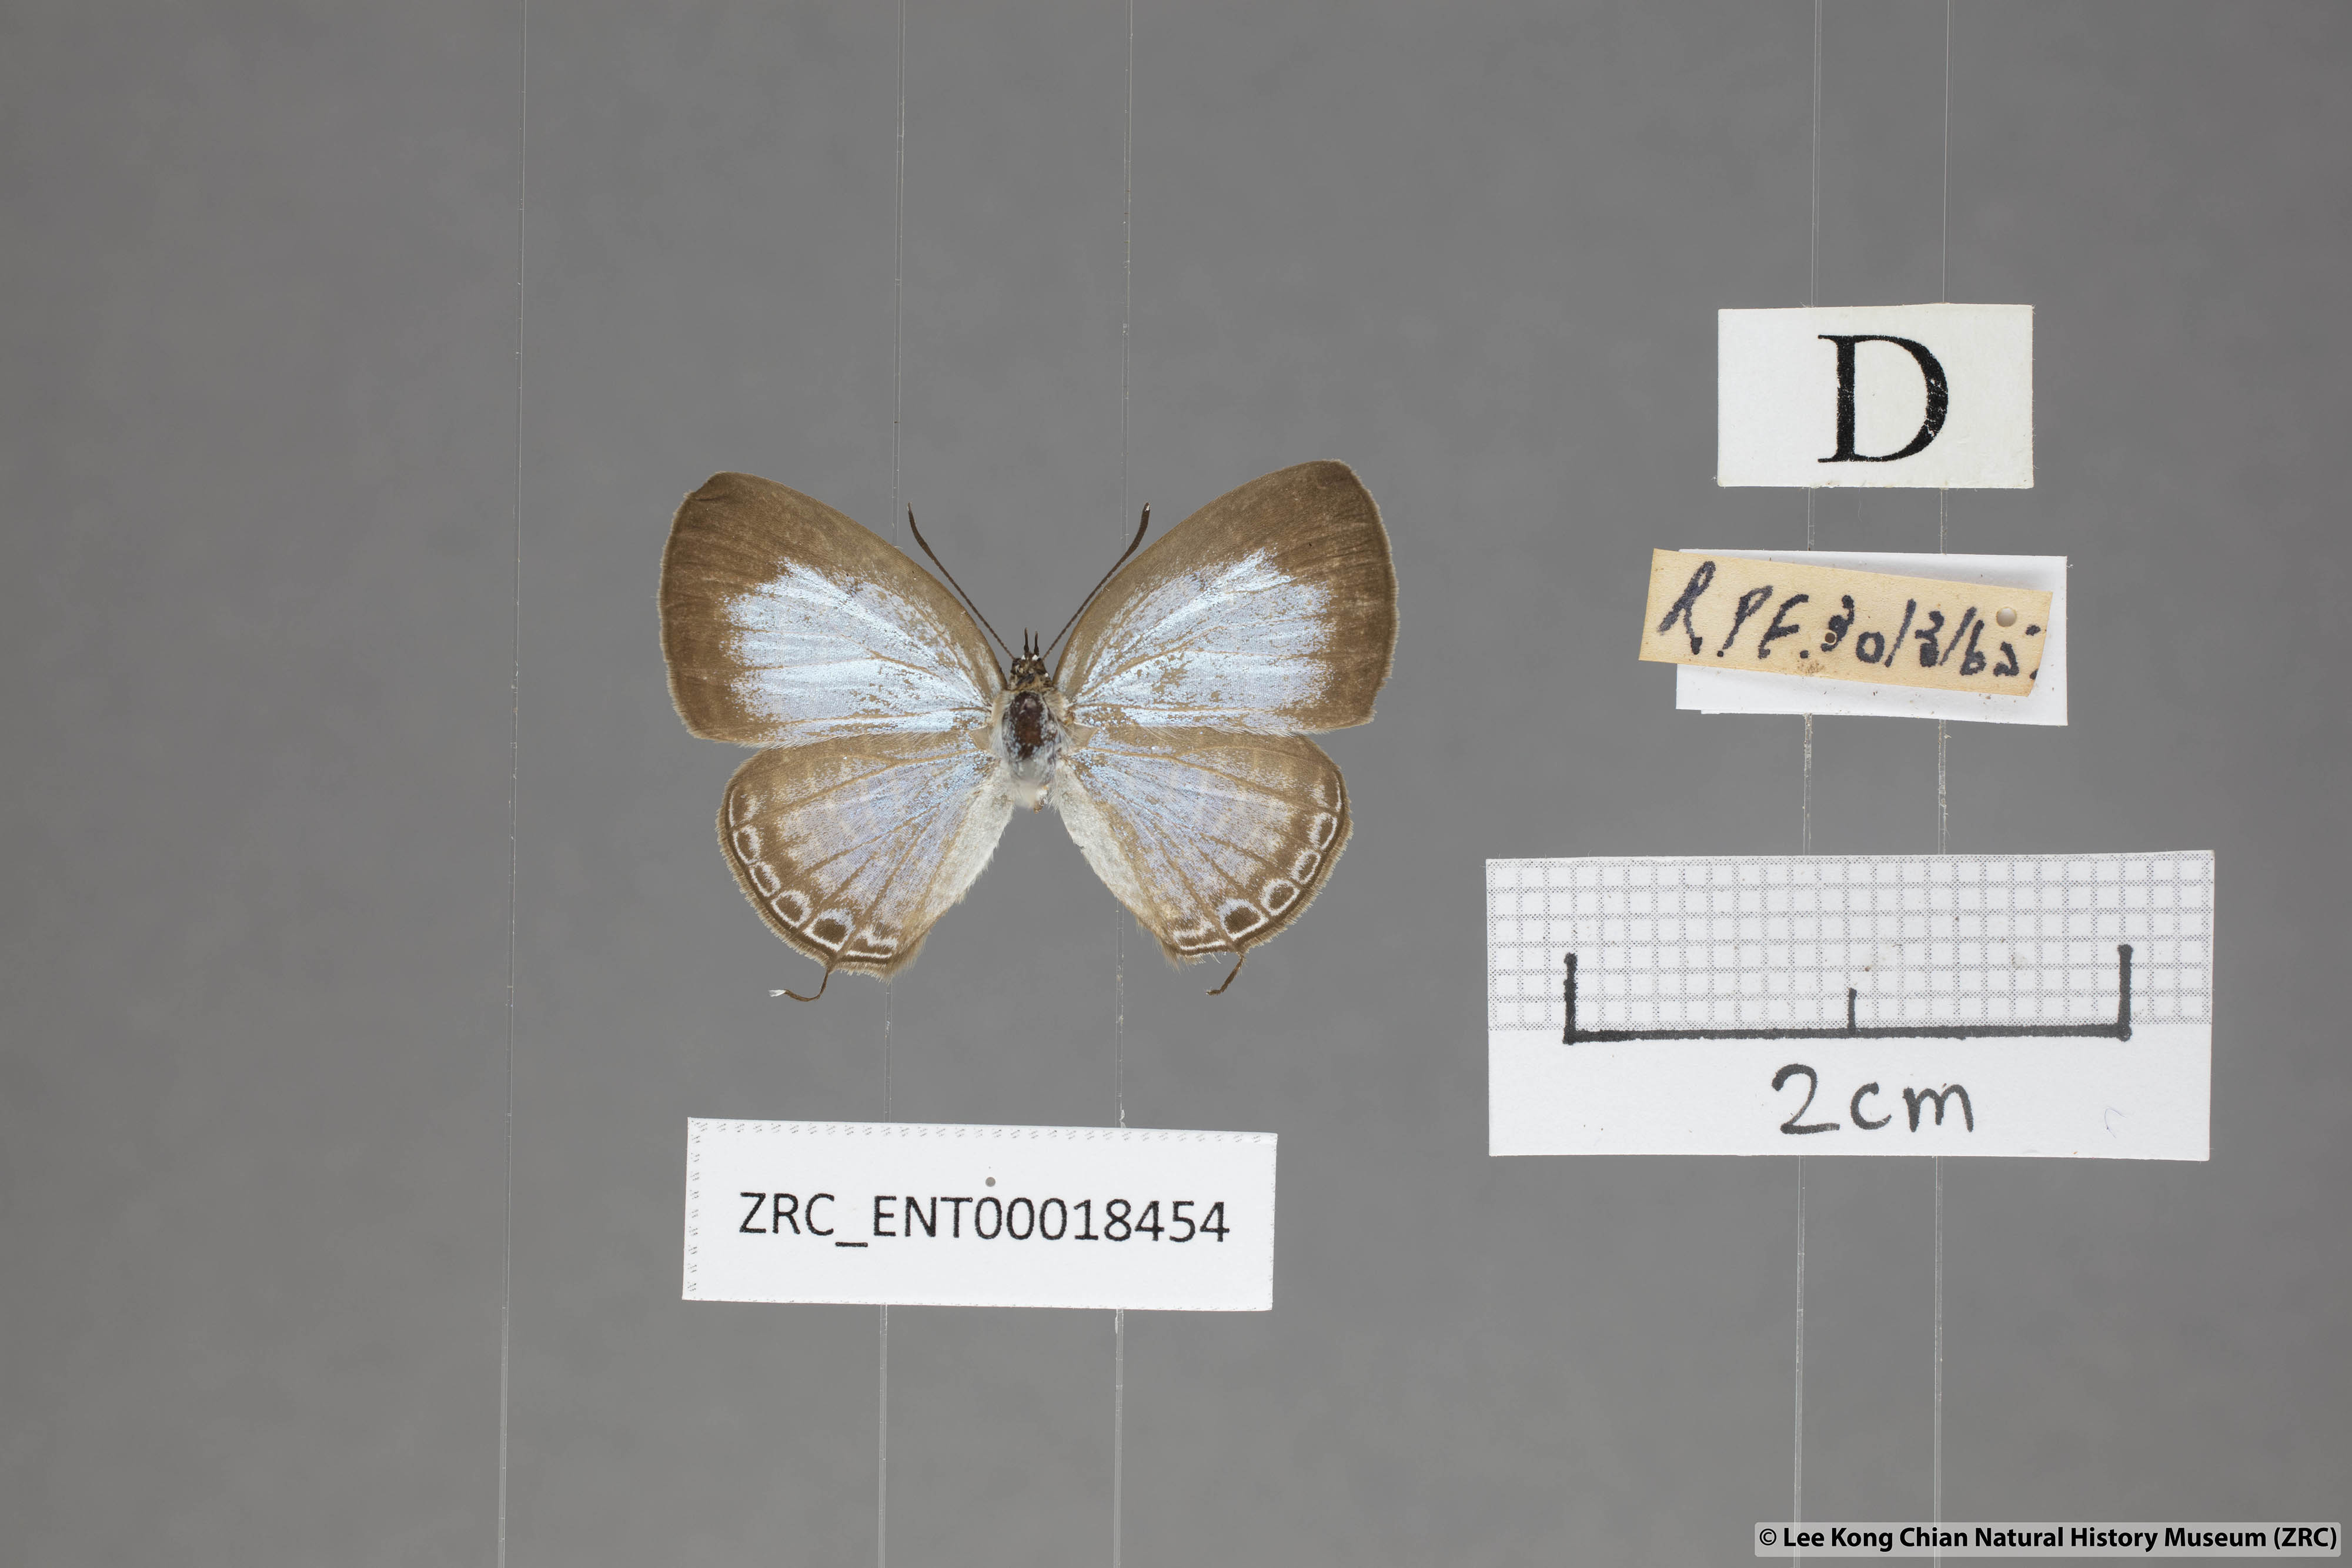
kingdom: Animalia
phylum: Arthropoda
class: Insecta
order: Lepidoptera
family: Lycaenidae
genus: Nacaduba
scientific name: Nacaduba sanaya
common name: Jewel fourline blue
